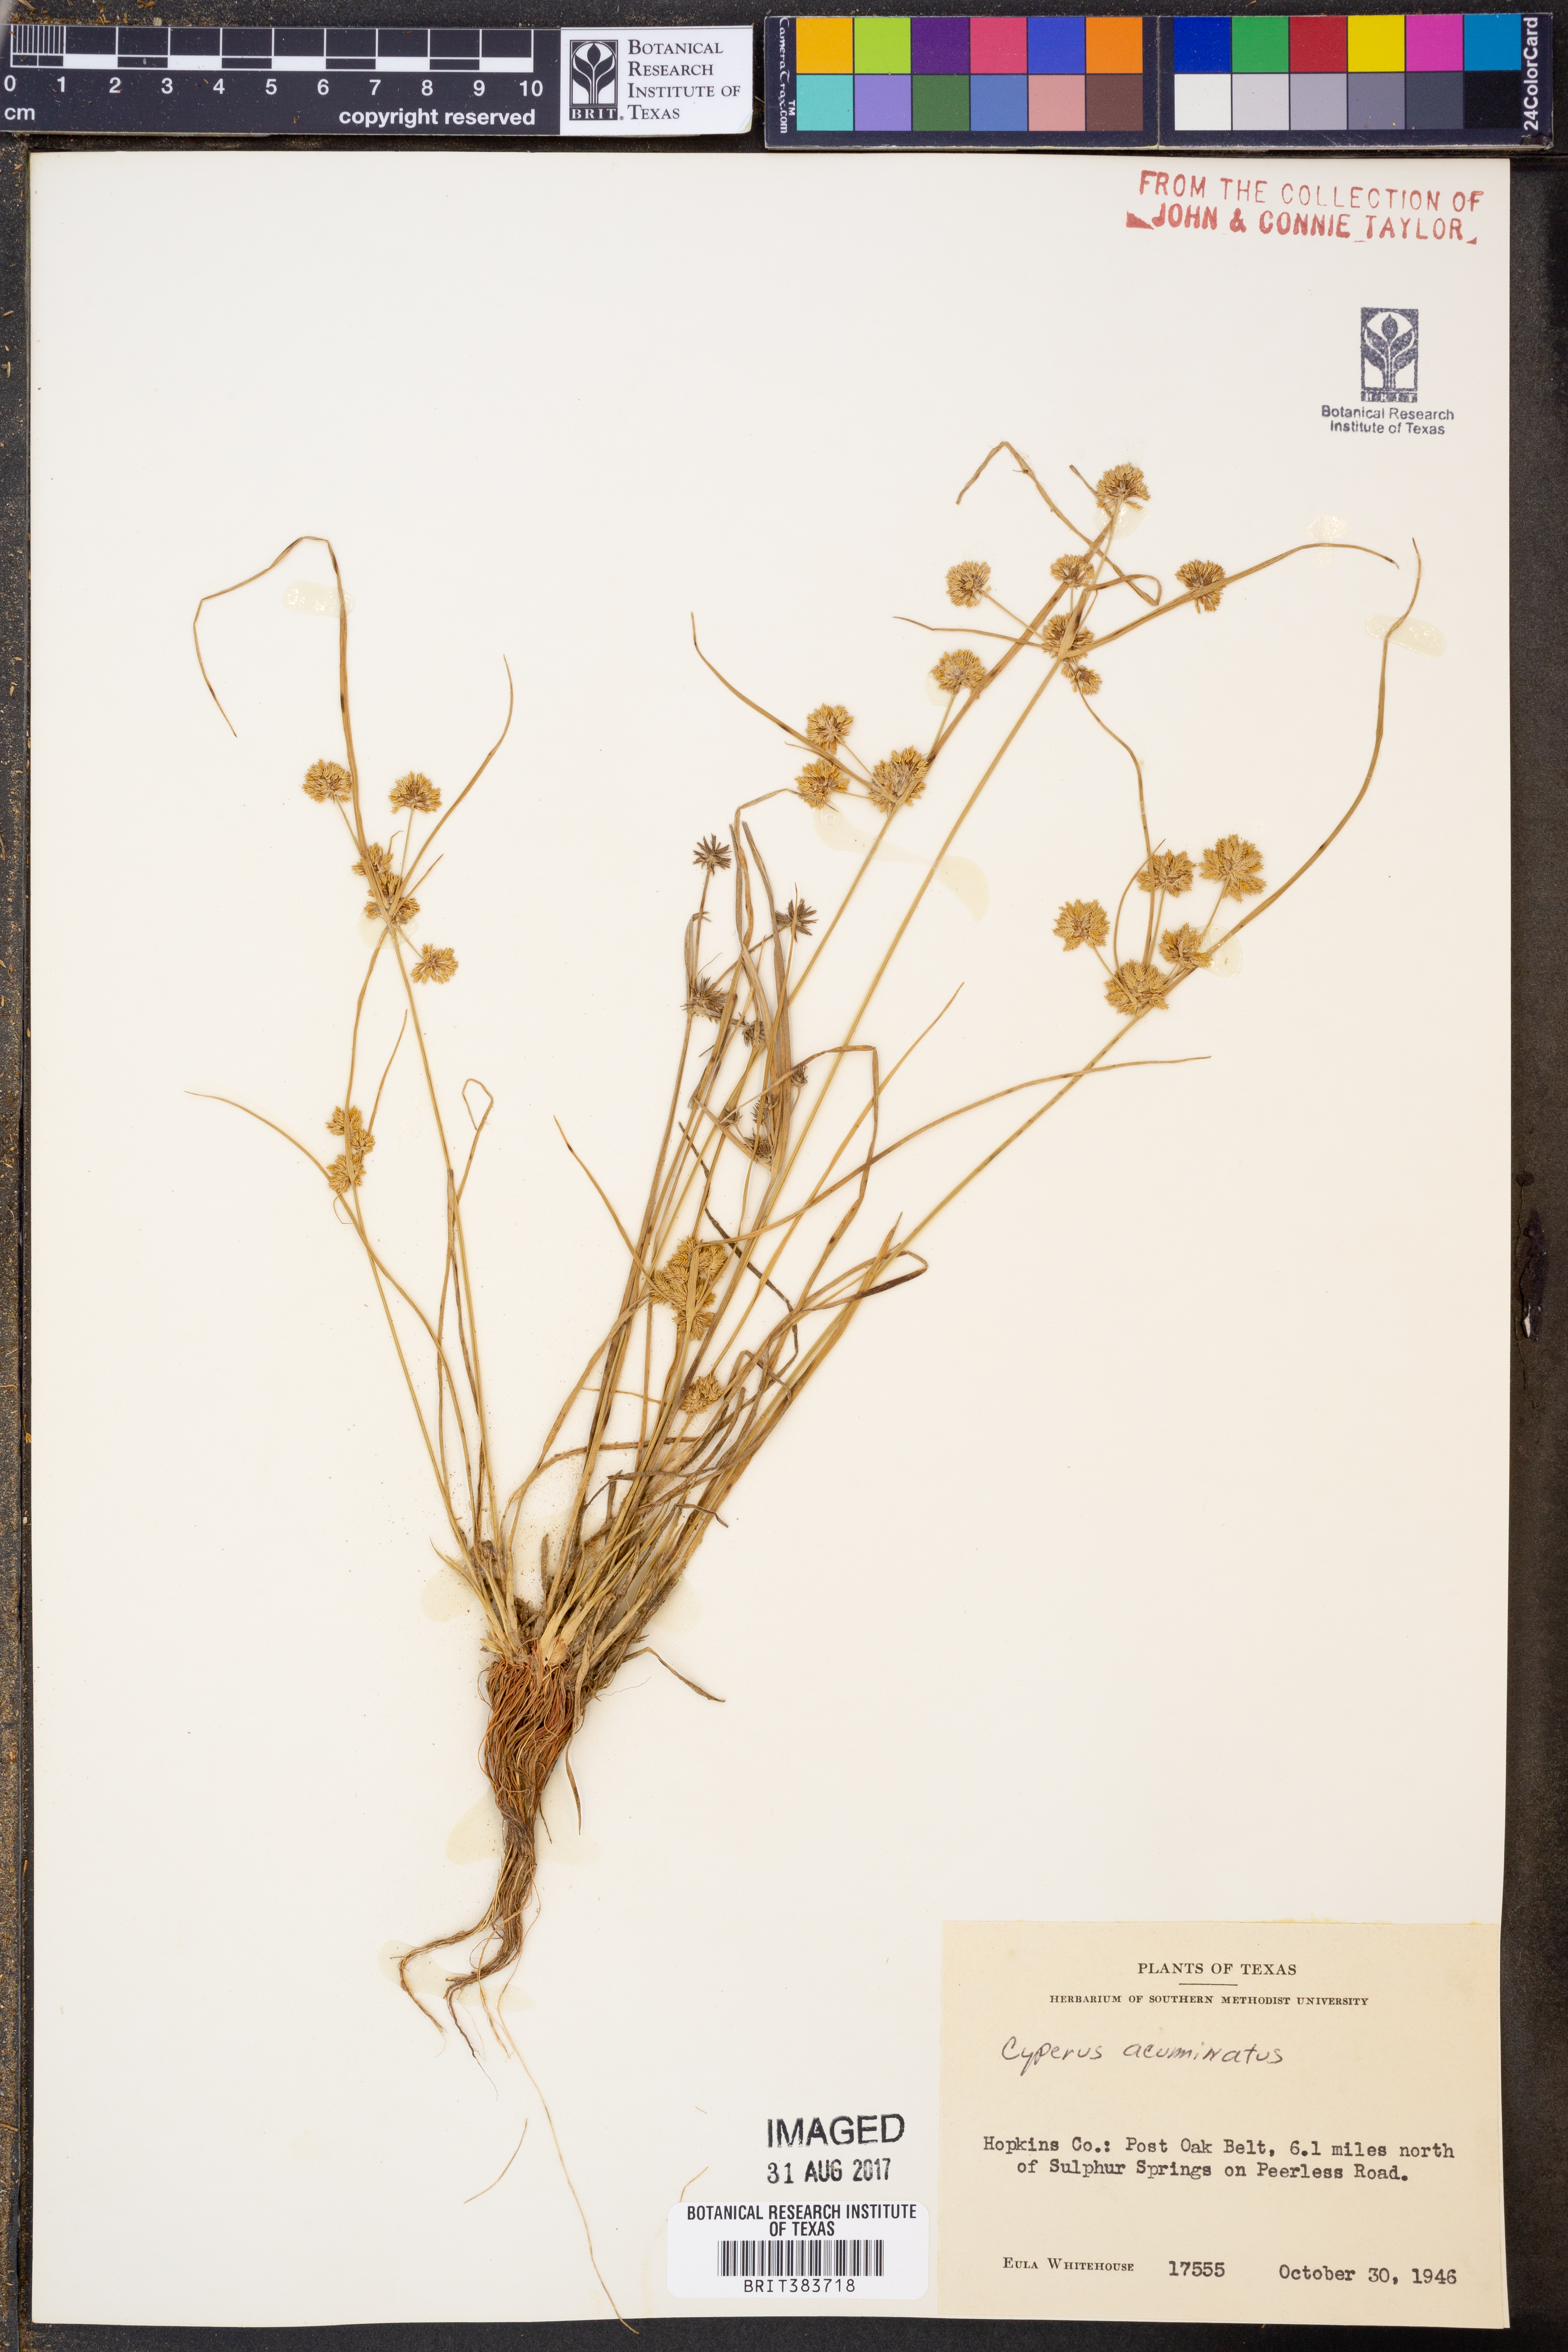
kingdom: Plantae
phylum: Tracheophyta
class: Liliopsida
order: Poales
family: Cyperaceae
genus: Cyperus
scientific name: Cyperus acuminatus
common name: Short-pointed cyperus
